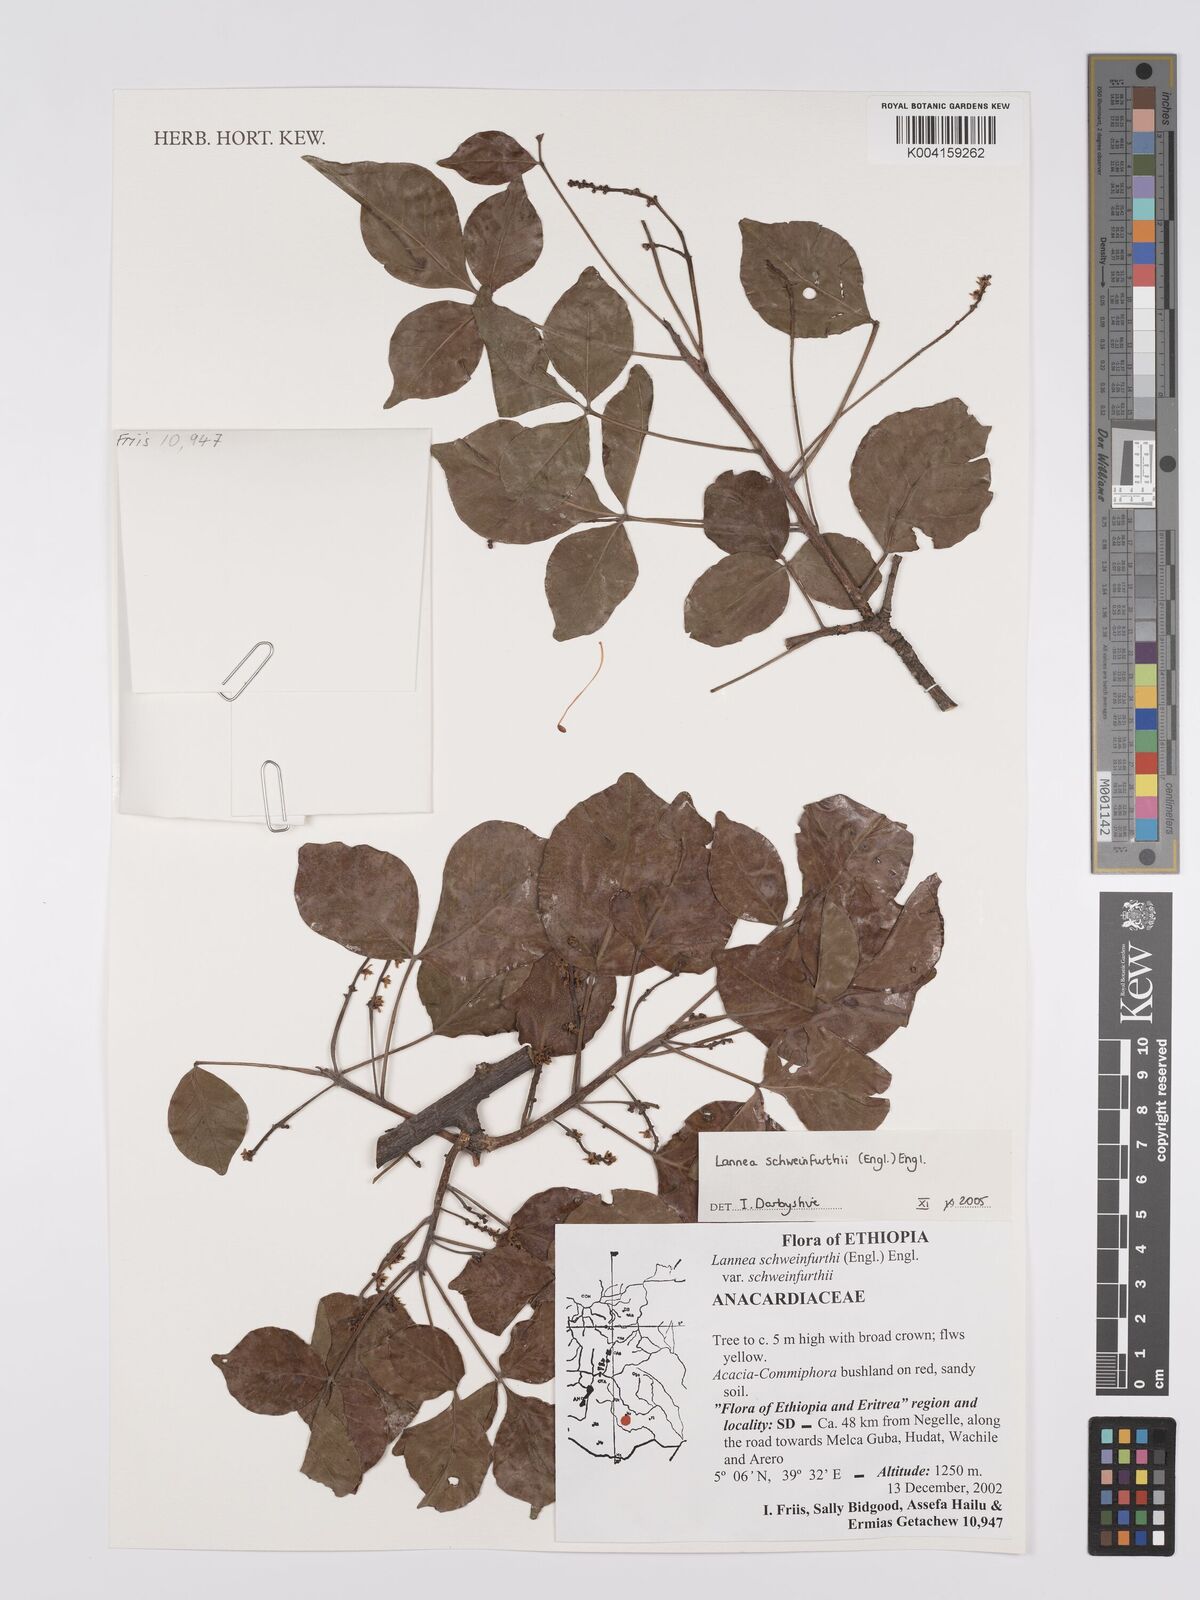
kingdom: Plantae
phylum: Tracheophyta
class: Magnoliopsida
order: Sapindales
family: Anacardiaceae
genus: Lannea
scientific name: Lannea schweinfurthii
